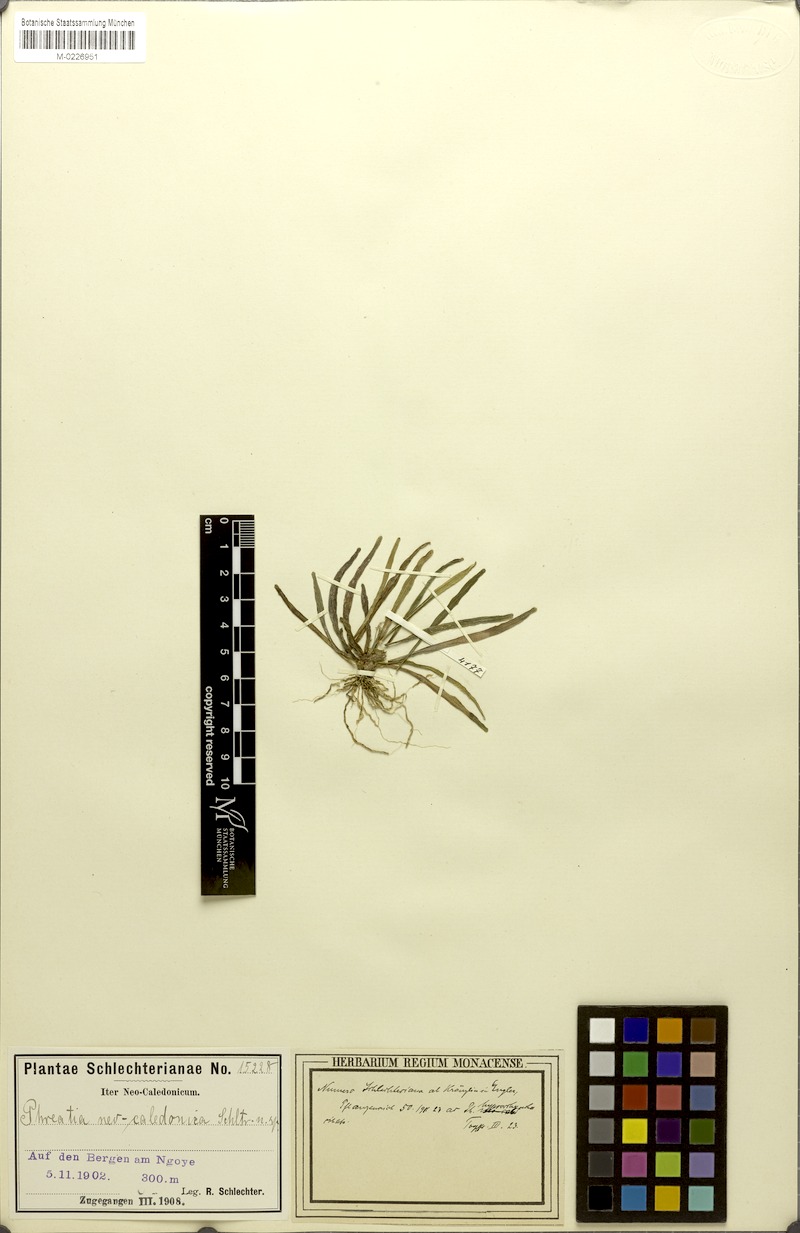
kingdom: Plantae
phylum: Tracheophyta
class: Liliopsida
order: Asparagales
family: Orchidaceae
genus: Phreatia
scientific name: Phreatia matthewsii
